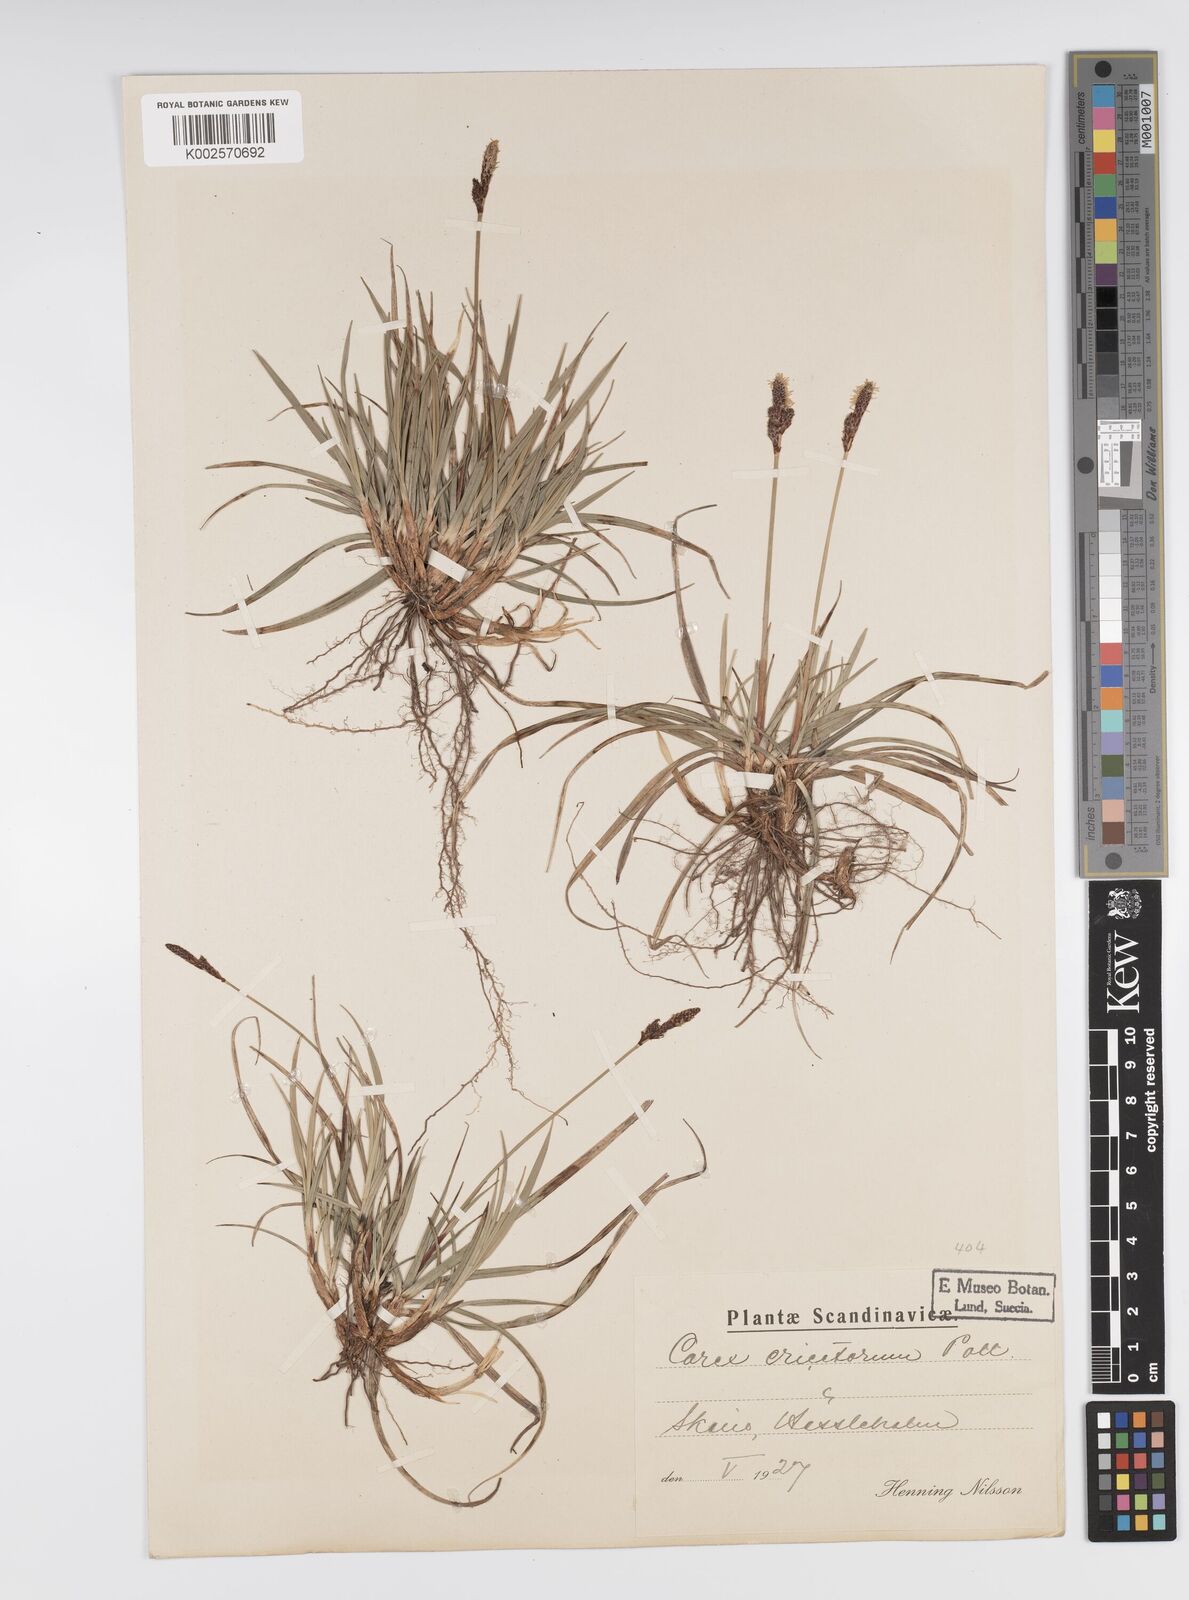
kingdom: Plantae
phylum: Tracheophyta
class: Liliopsida
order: Poales
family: Cyperaceae
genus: Carex
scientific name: Carex ericetorum
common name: Rare spring-sedge
